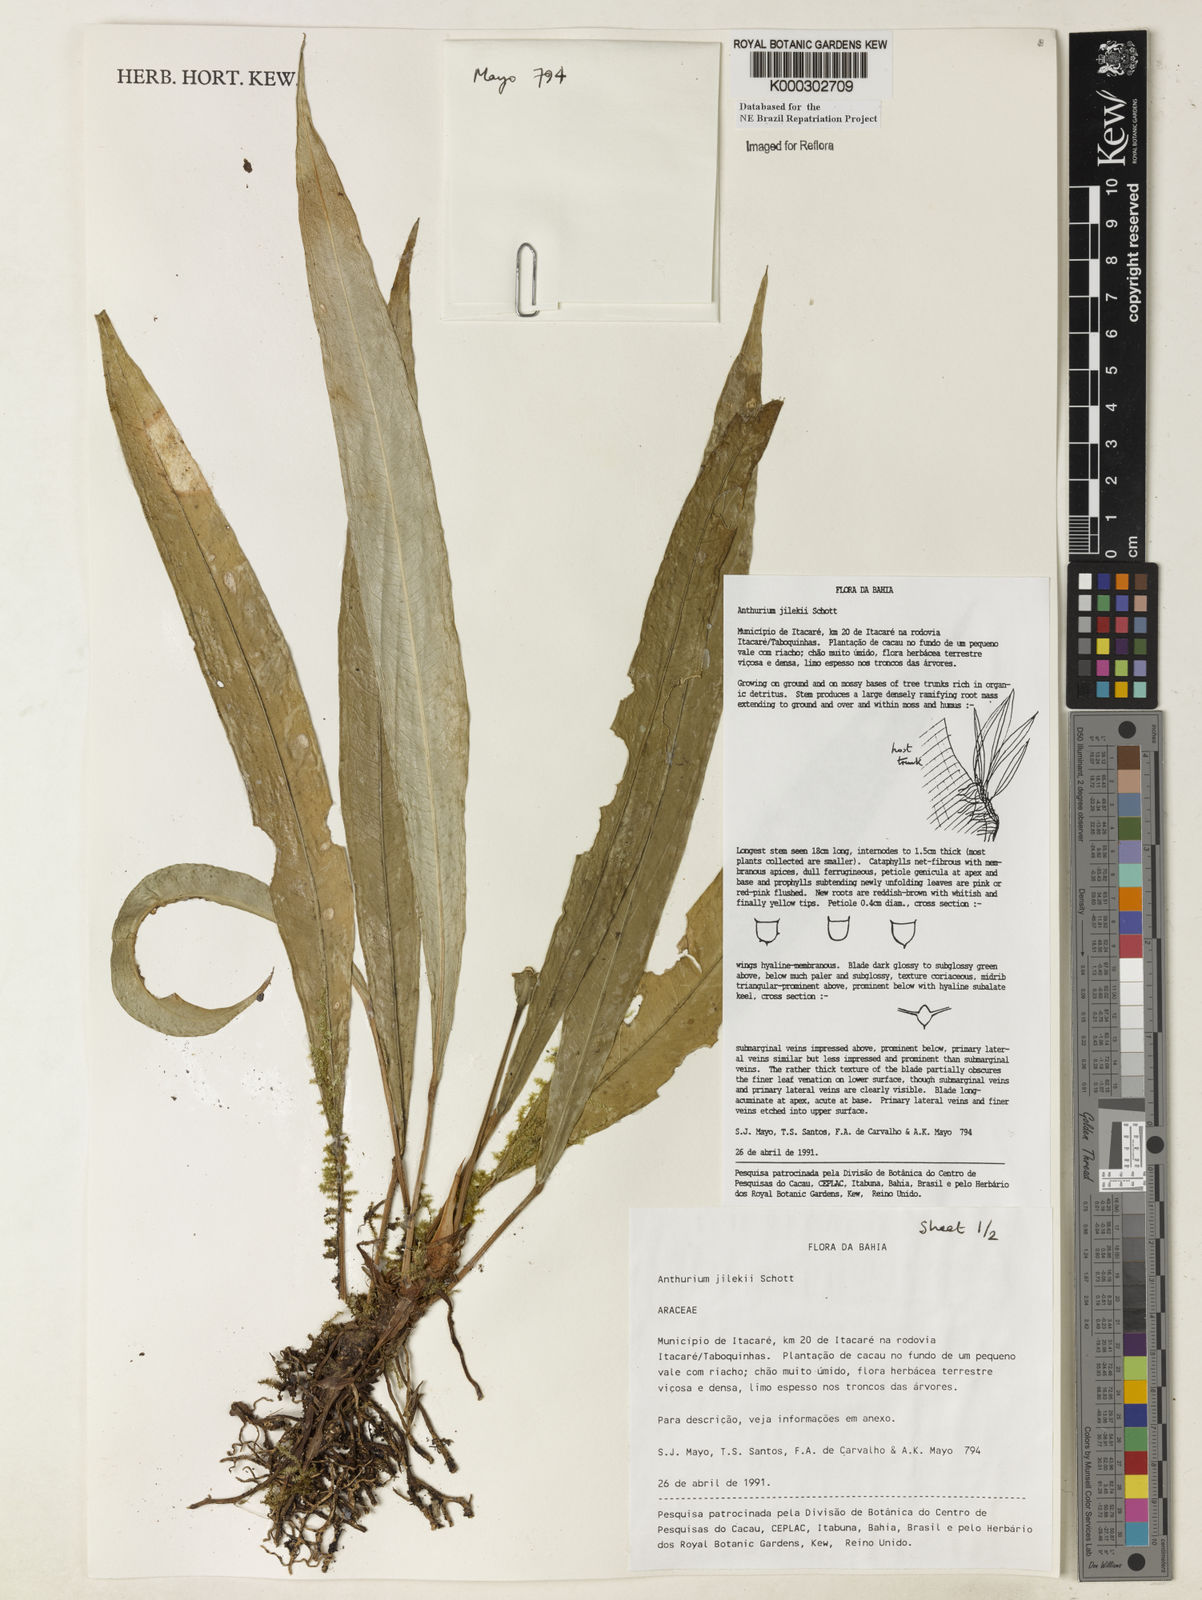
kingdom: Plantae
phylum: Tracheophyta
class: Liliopsida
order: Alismatales
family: Araceae
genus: Anthurium
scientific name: Anthurium jilekii
